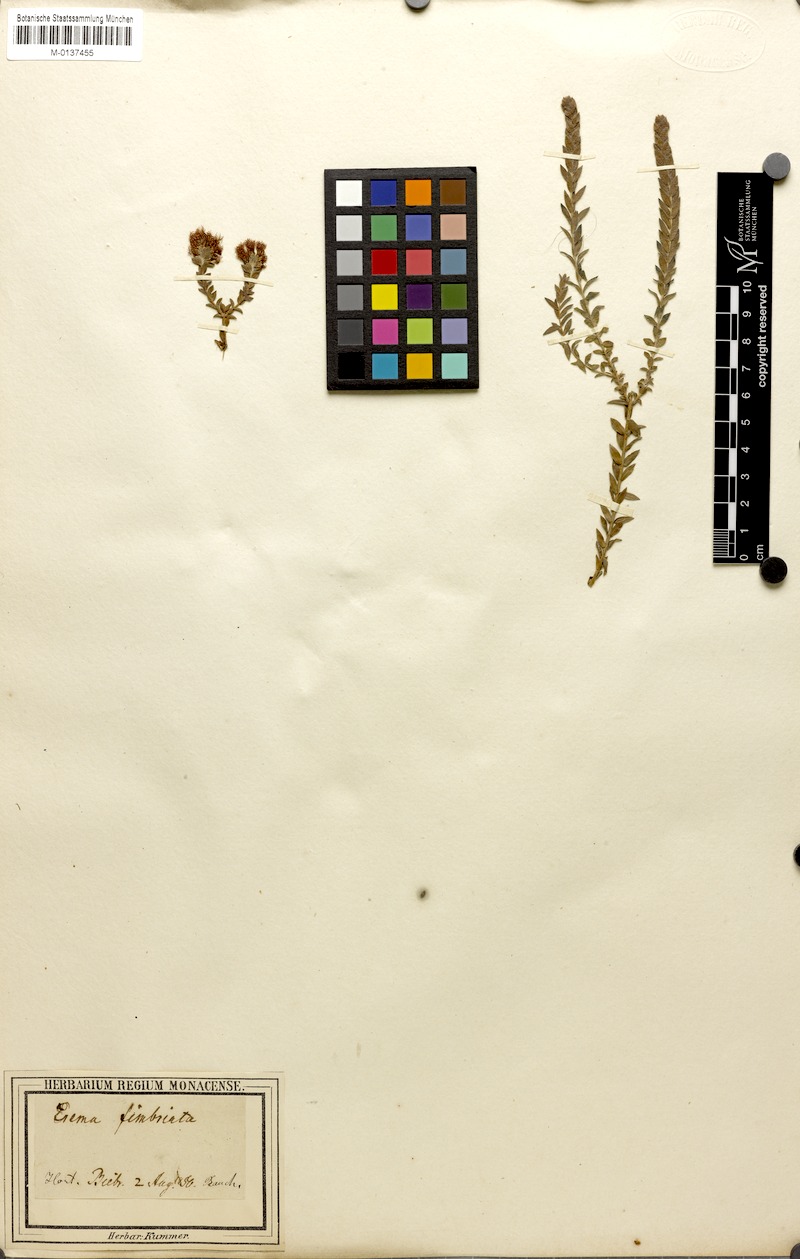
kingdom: Plantae
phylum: Tracheophyta
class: Magnoliopsida
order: Myrtales
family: Myrtaceae
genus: Melaleuca
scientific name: Melaleuca thysanota
